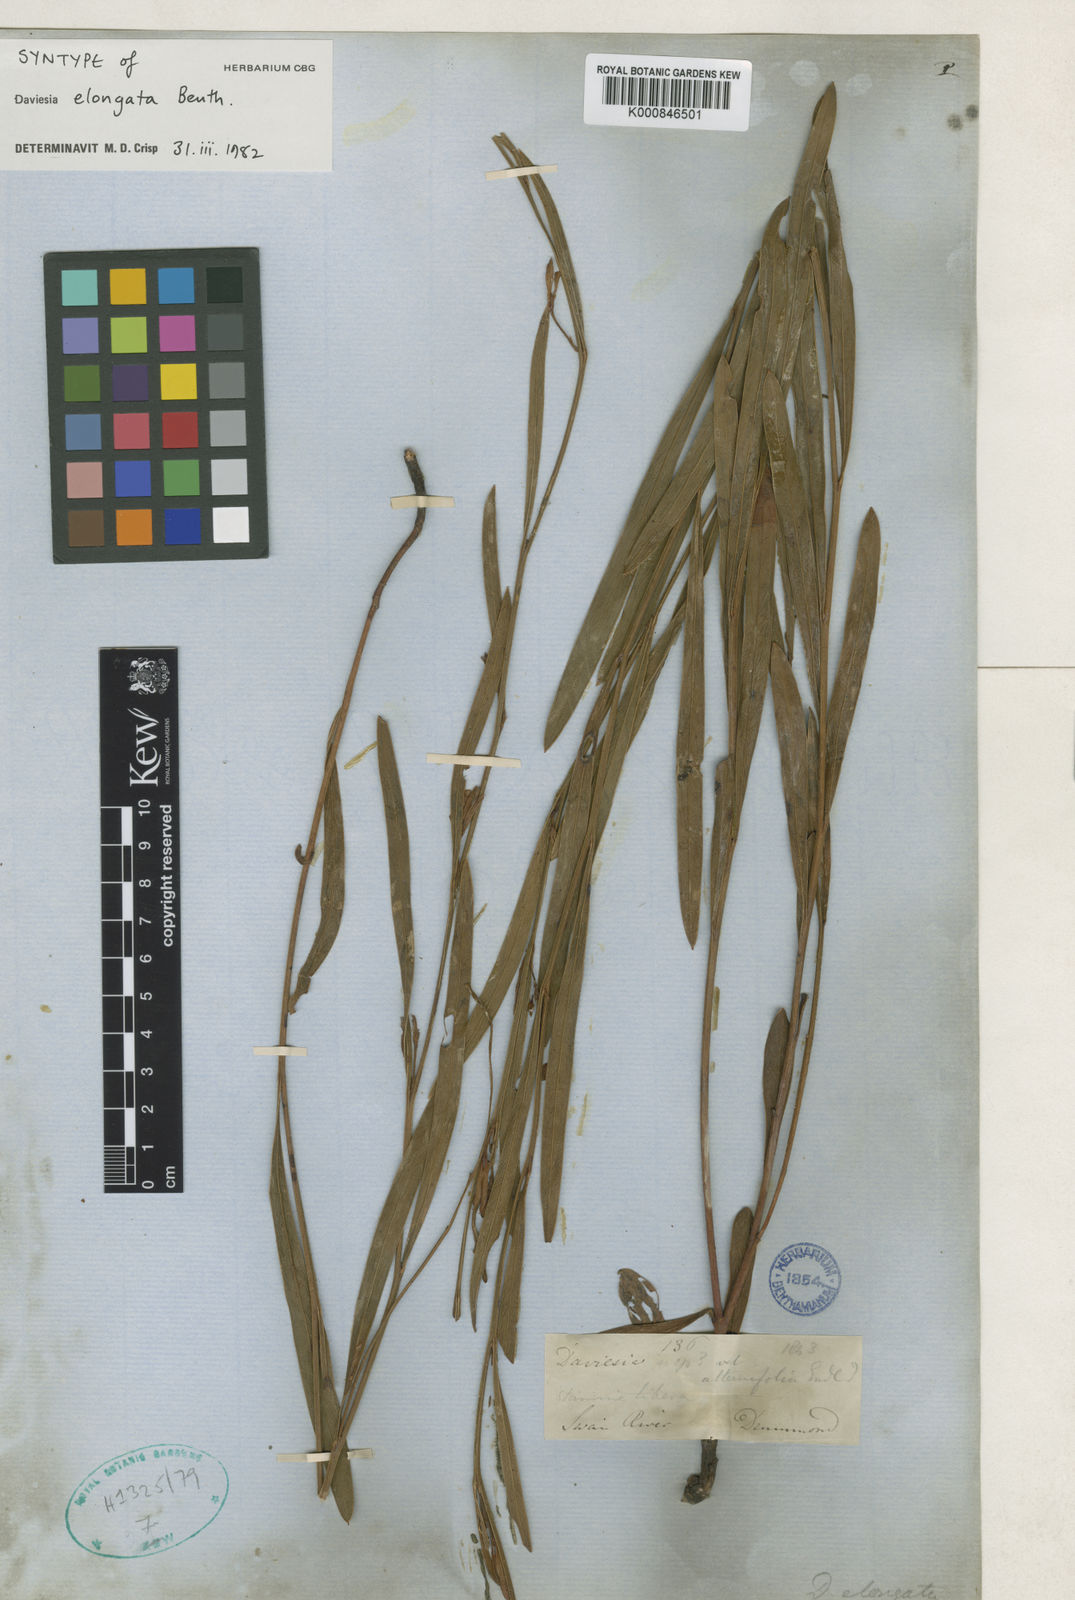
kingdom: Plantae
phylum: Tracheophyta
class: Magnoliopsida
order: Fabales
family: Fabaceae
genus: Daviesia
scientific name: Daviesia elongata
